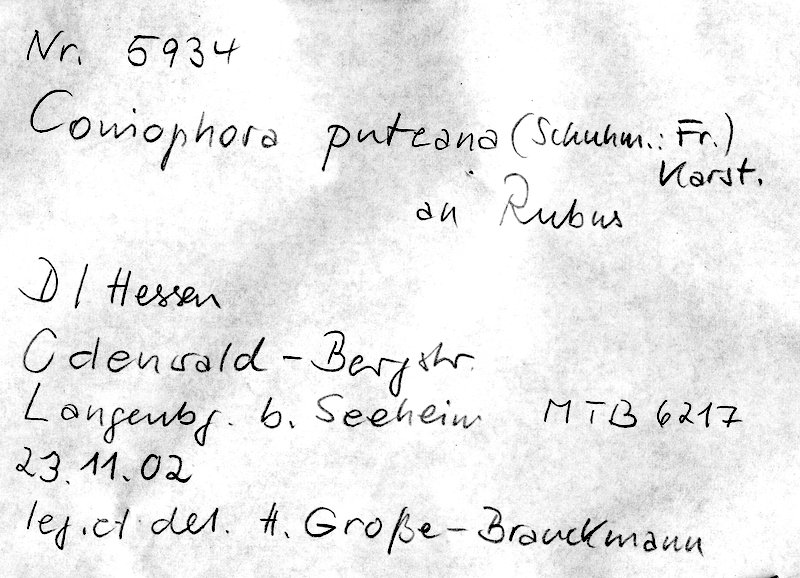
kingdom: Fungi
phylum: Basidiomycota
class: Agaricomycetes
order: Boletales
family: Coniophoraceae
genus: Coniophora
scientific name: Coniophora puteana
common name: Cellar fungus
